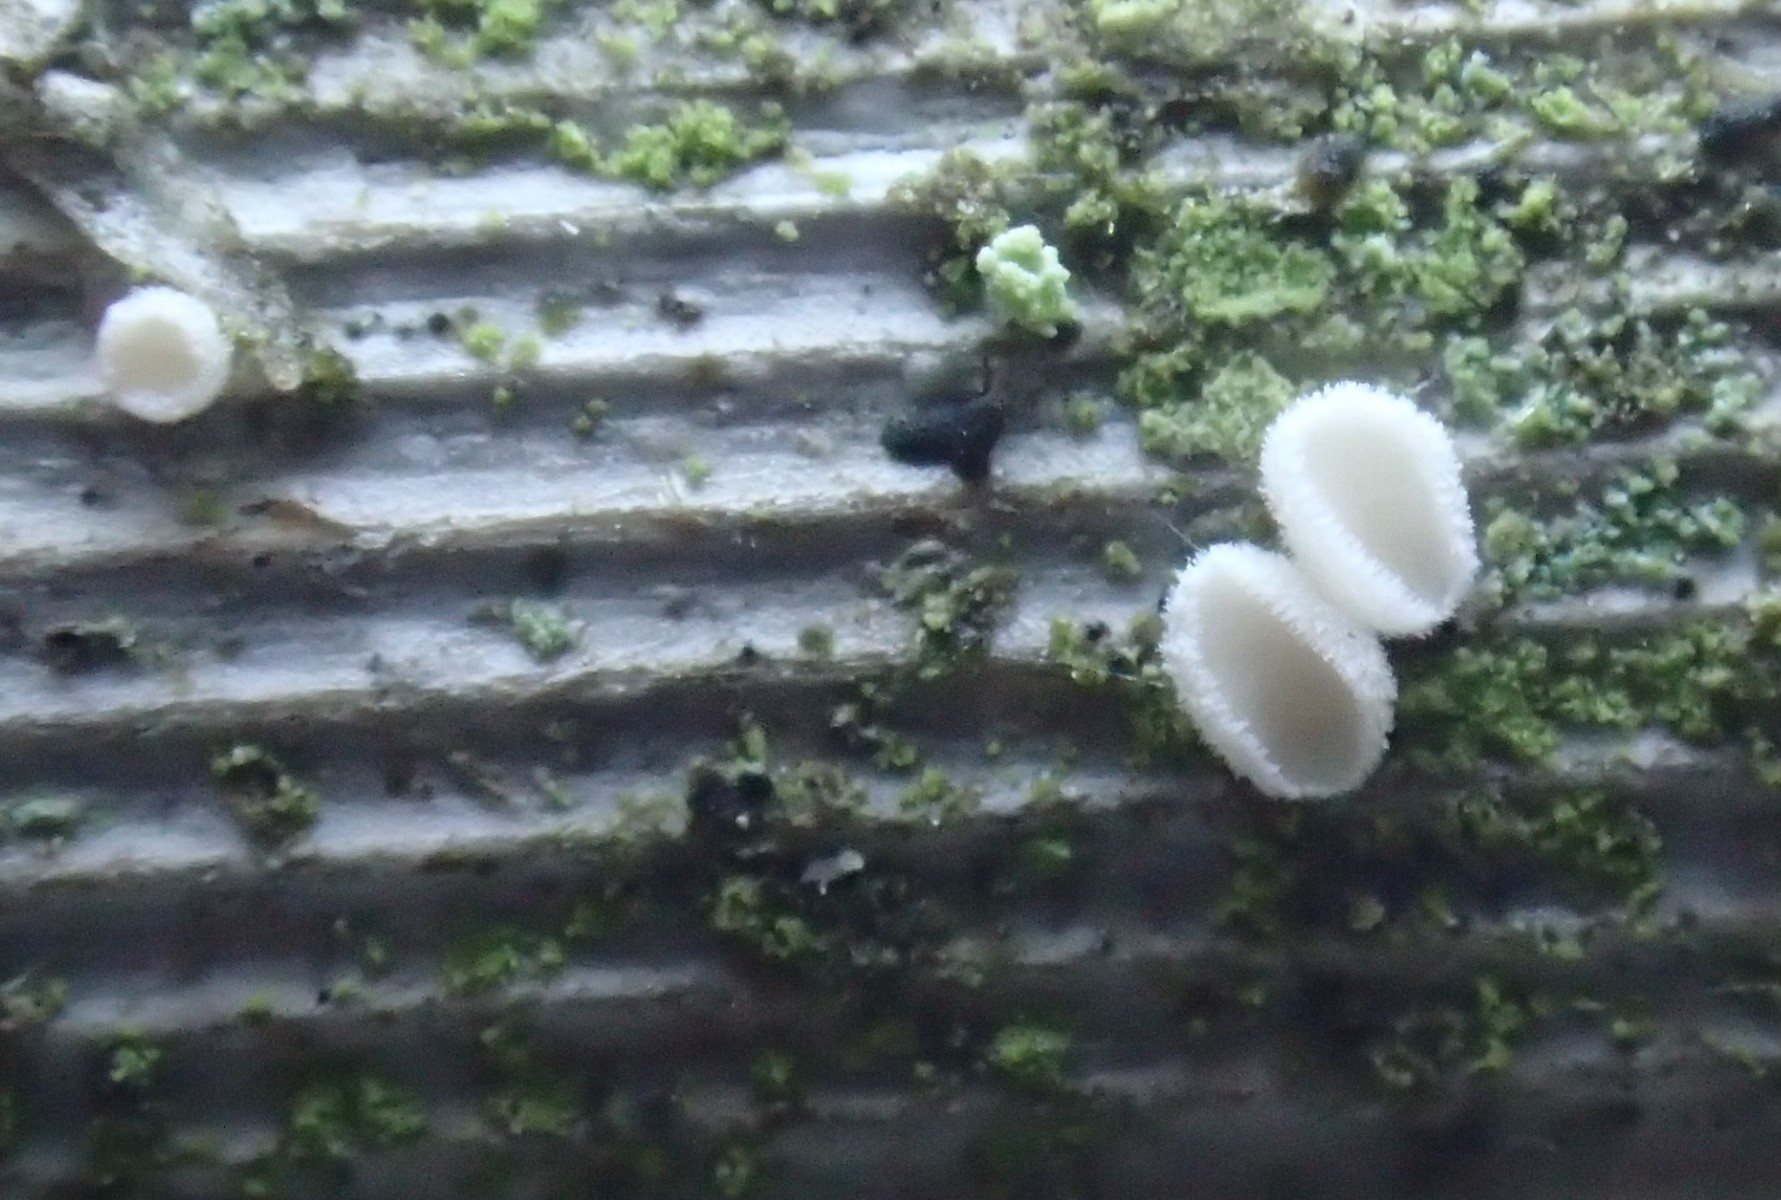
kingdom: Fungi
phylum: Ascomycota
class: Leotiomycetes
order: Helotiales
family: Lachnaceae
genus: Lachnum
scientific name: Lachnum
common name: frynseskive
